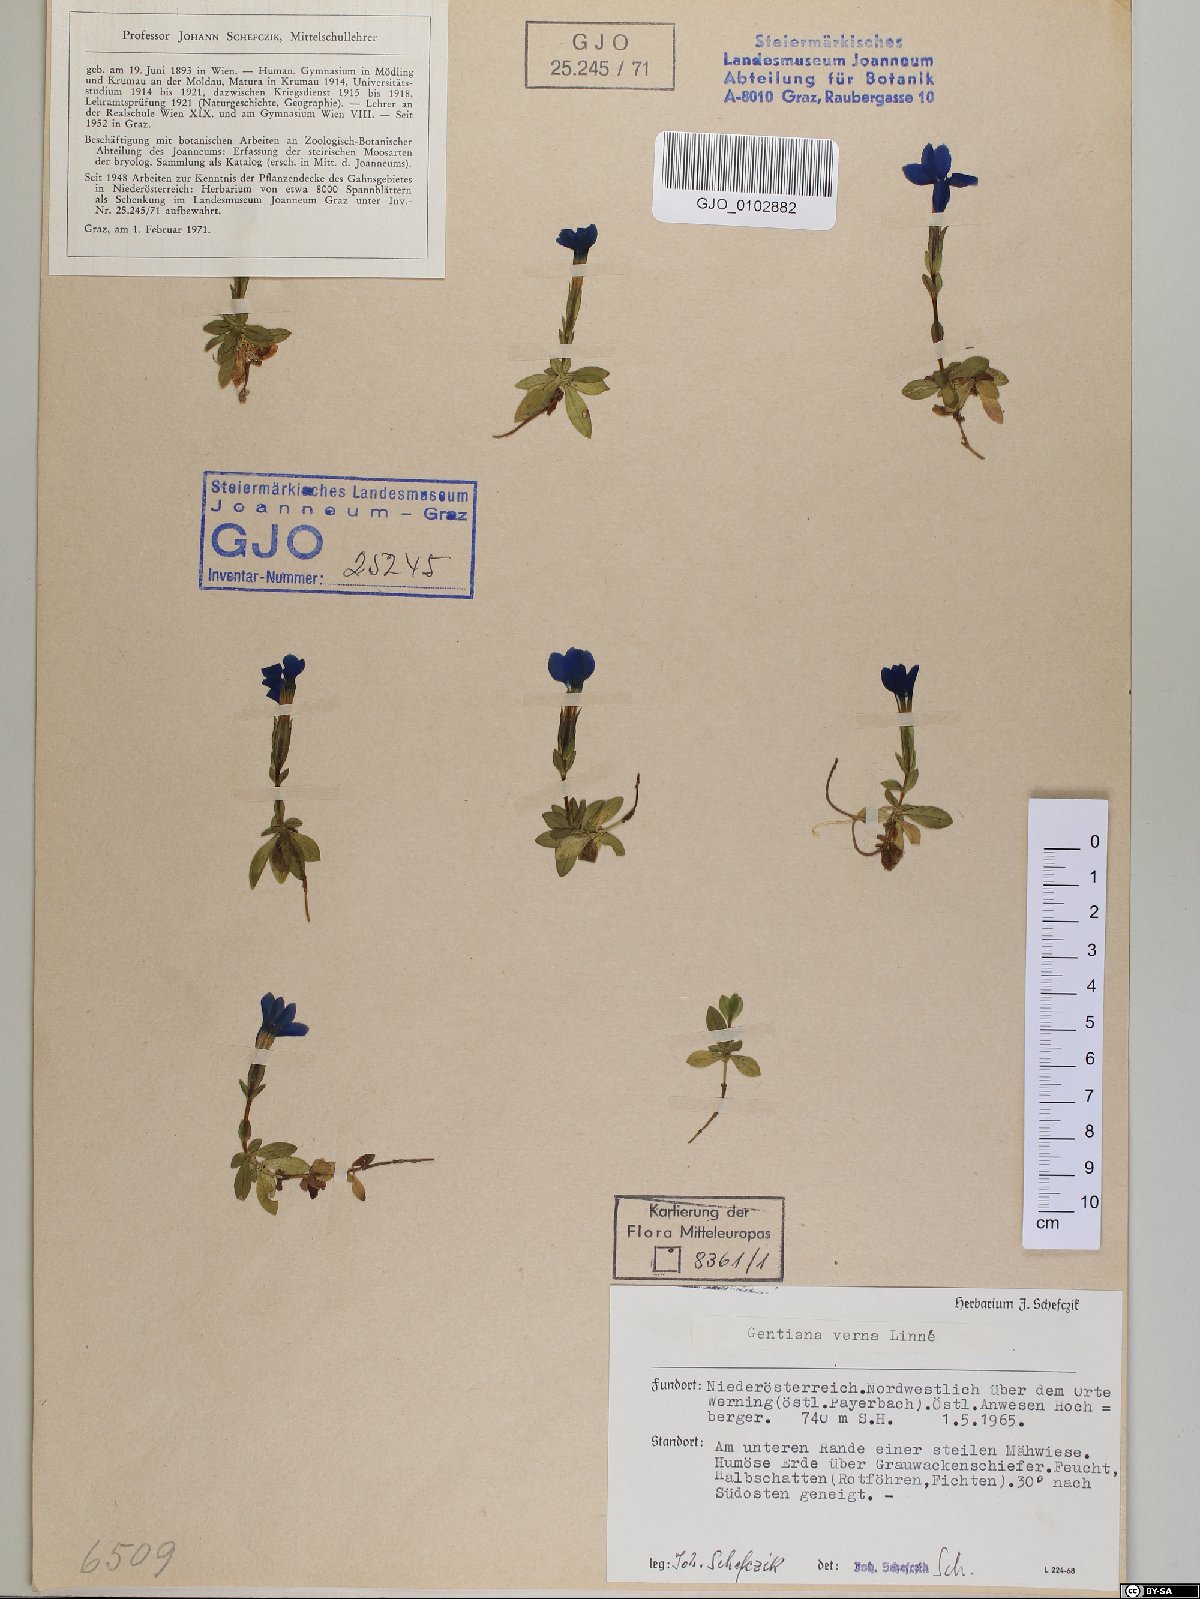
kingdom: Plantae
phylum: Tracheophyta
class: Magnoliopsida
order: Gentianales
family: Gentianaceae
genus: Gentiana
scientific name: Gentiana verna
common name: Spring gentian
